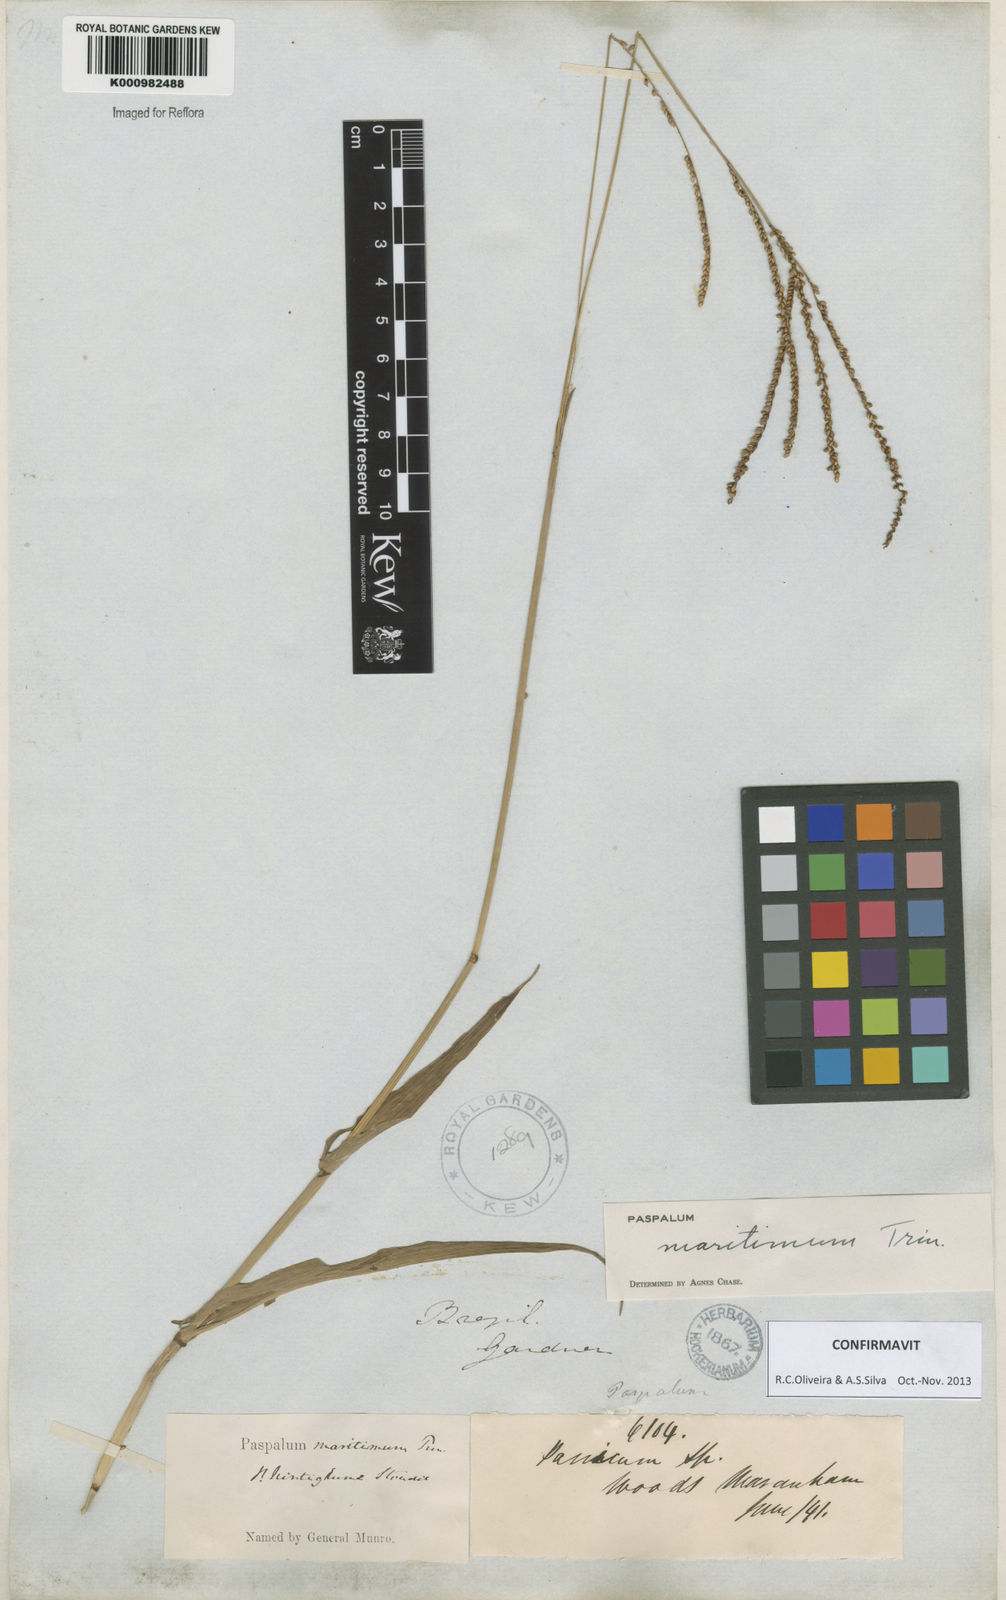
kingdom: Plantae
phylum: Tracheophyta
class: Liliopsida
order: Poales
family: Poaceae
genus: Paspalum
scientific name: Paspalum maritimum
